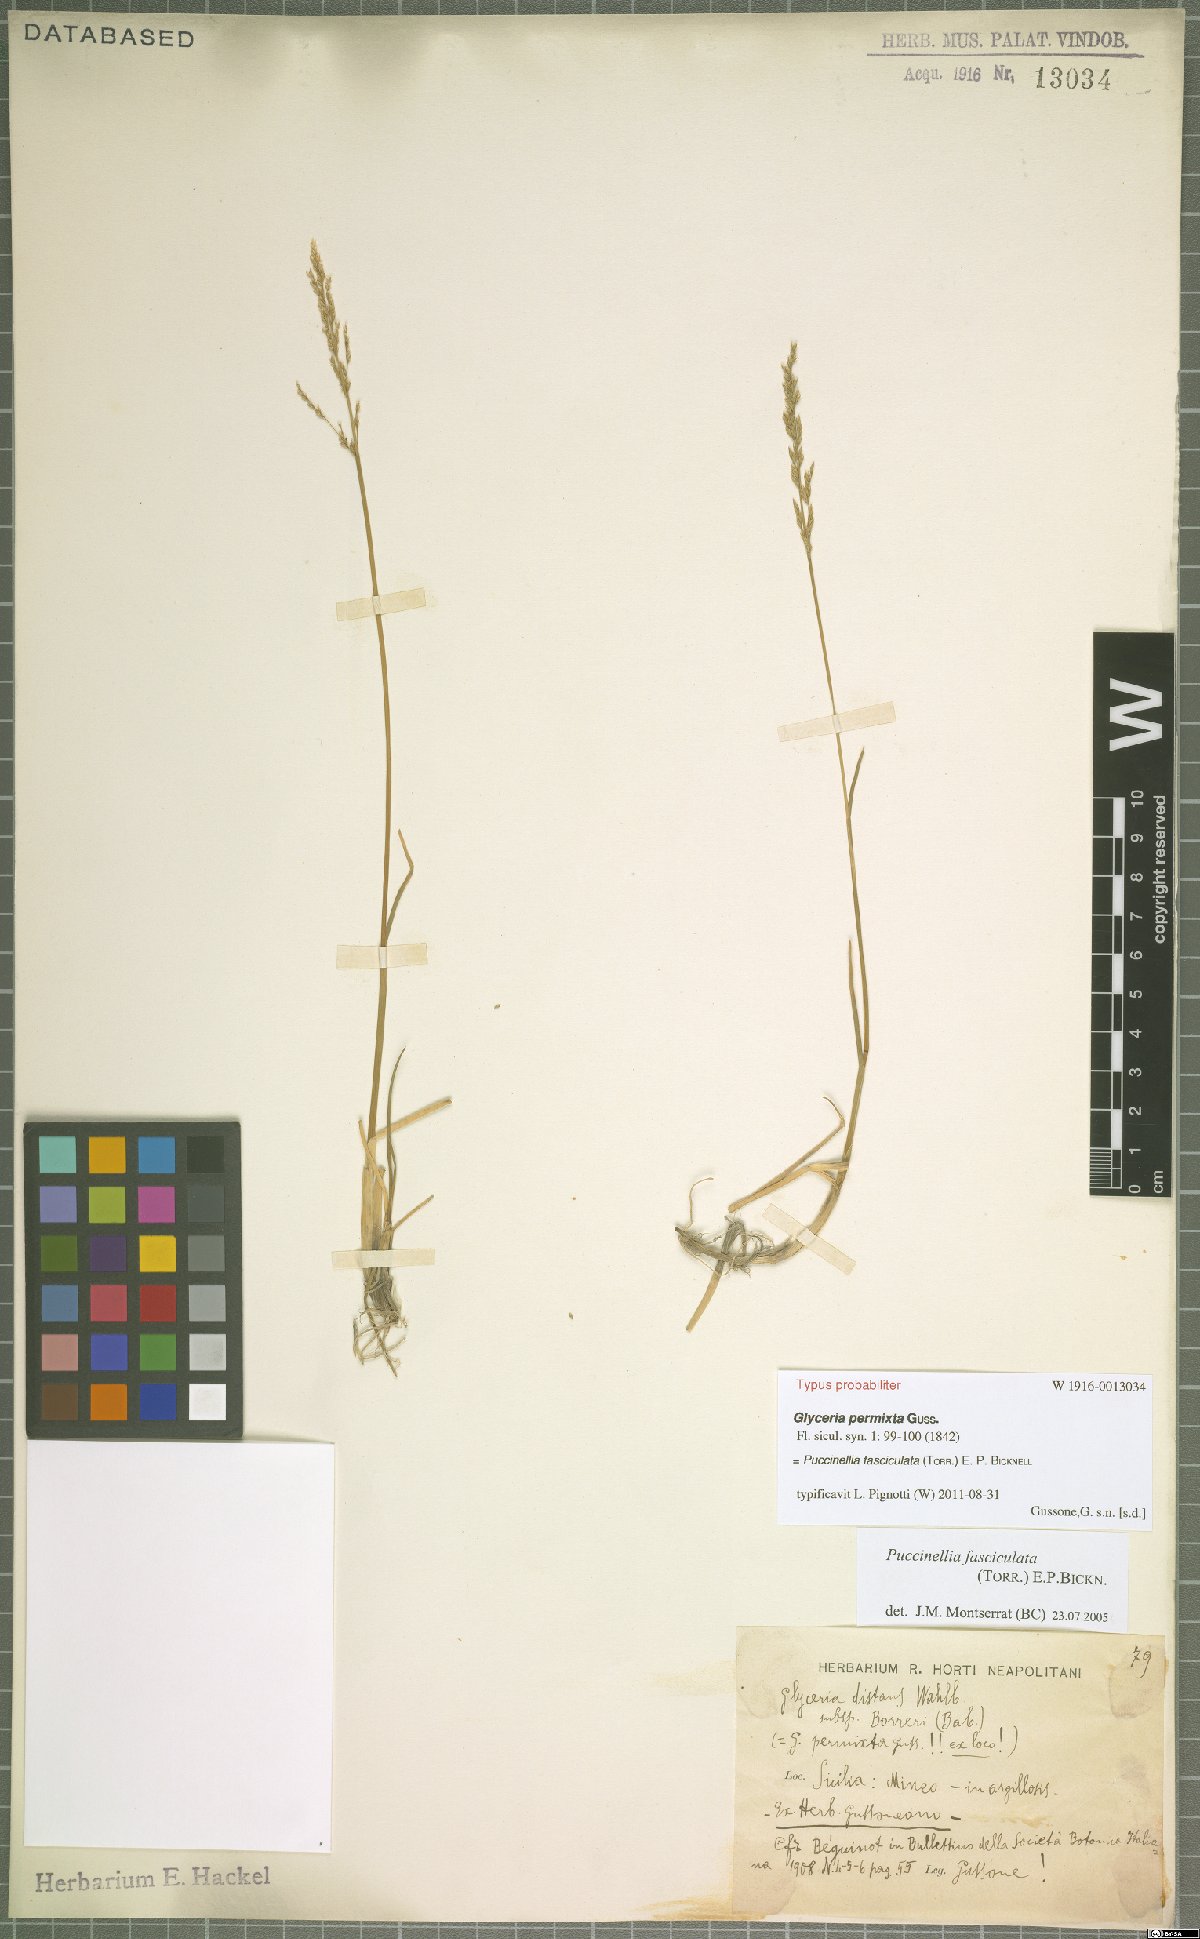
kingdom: Plantae
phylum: Tracheophyta
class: Liliopsida
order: Poales
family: Poaceae
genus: Puccinellia
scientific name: Puccinellia fasciculata
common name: Borrer's saltmarsh-grass
